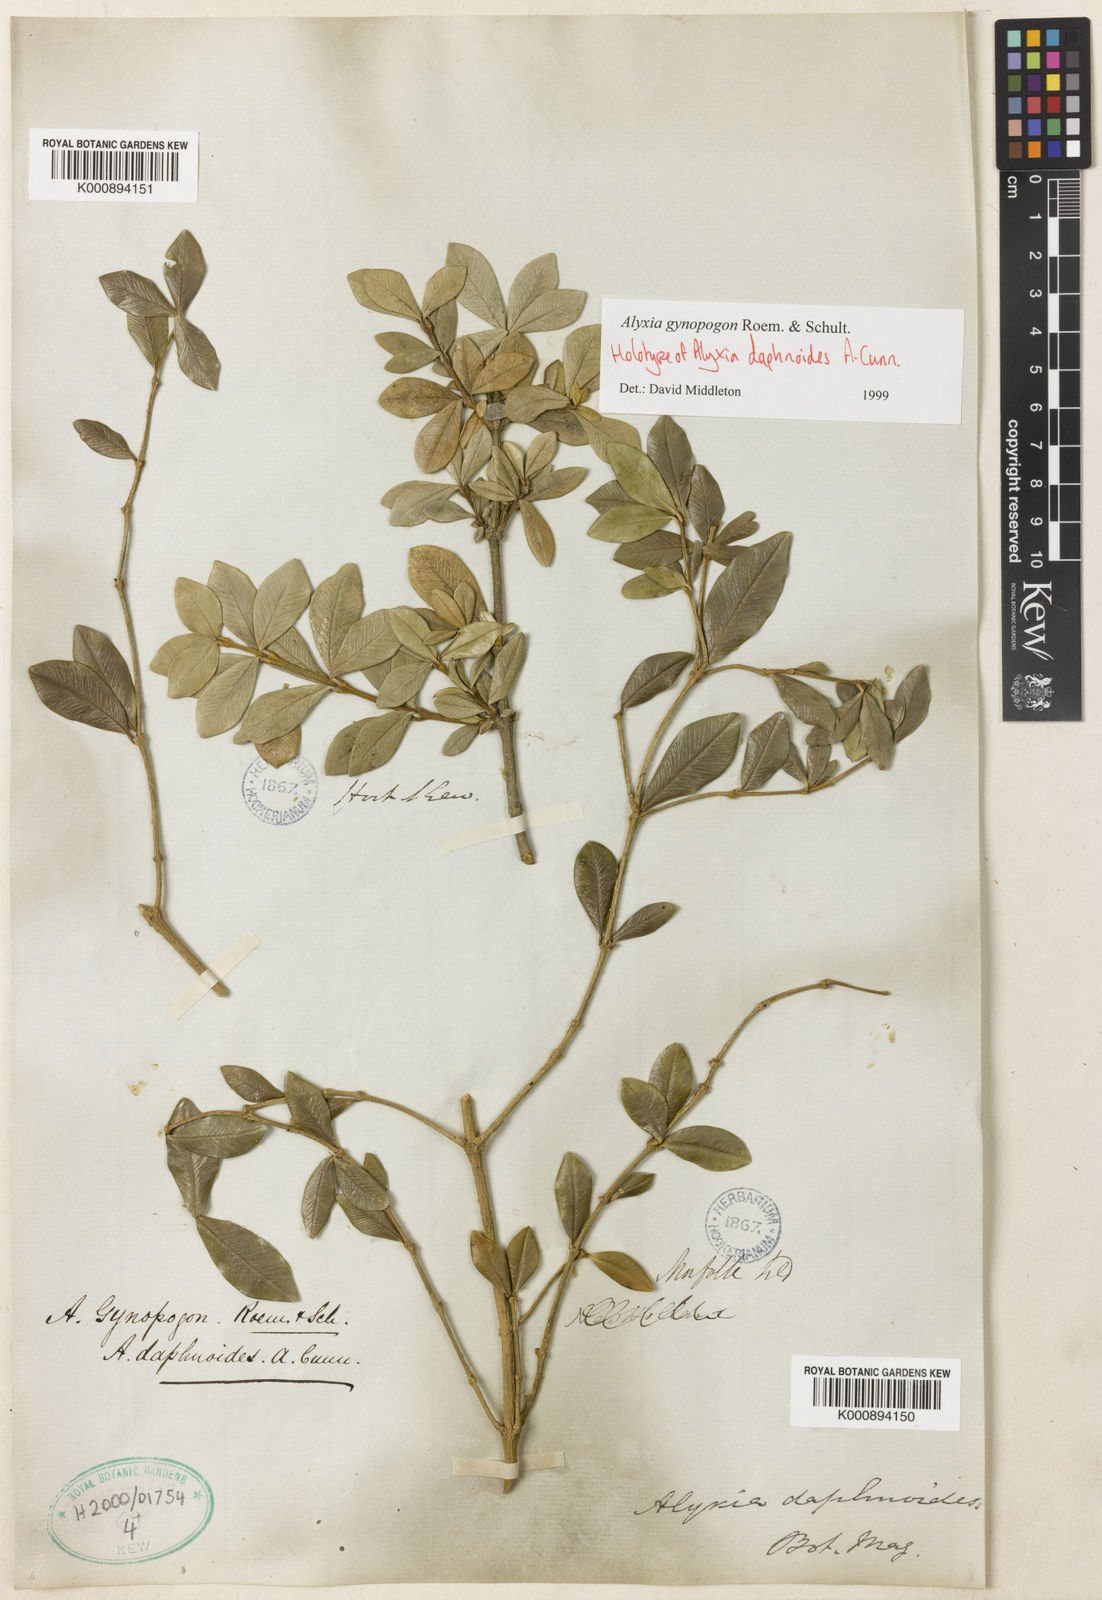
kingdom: Plantae
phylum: Tracheophyta
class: Magnoliopsida
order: Gentianales
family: Apocynaceae
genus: Alyxia
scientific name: Alyxia gynopogon
